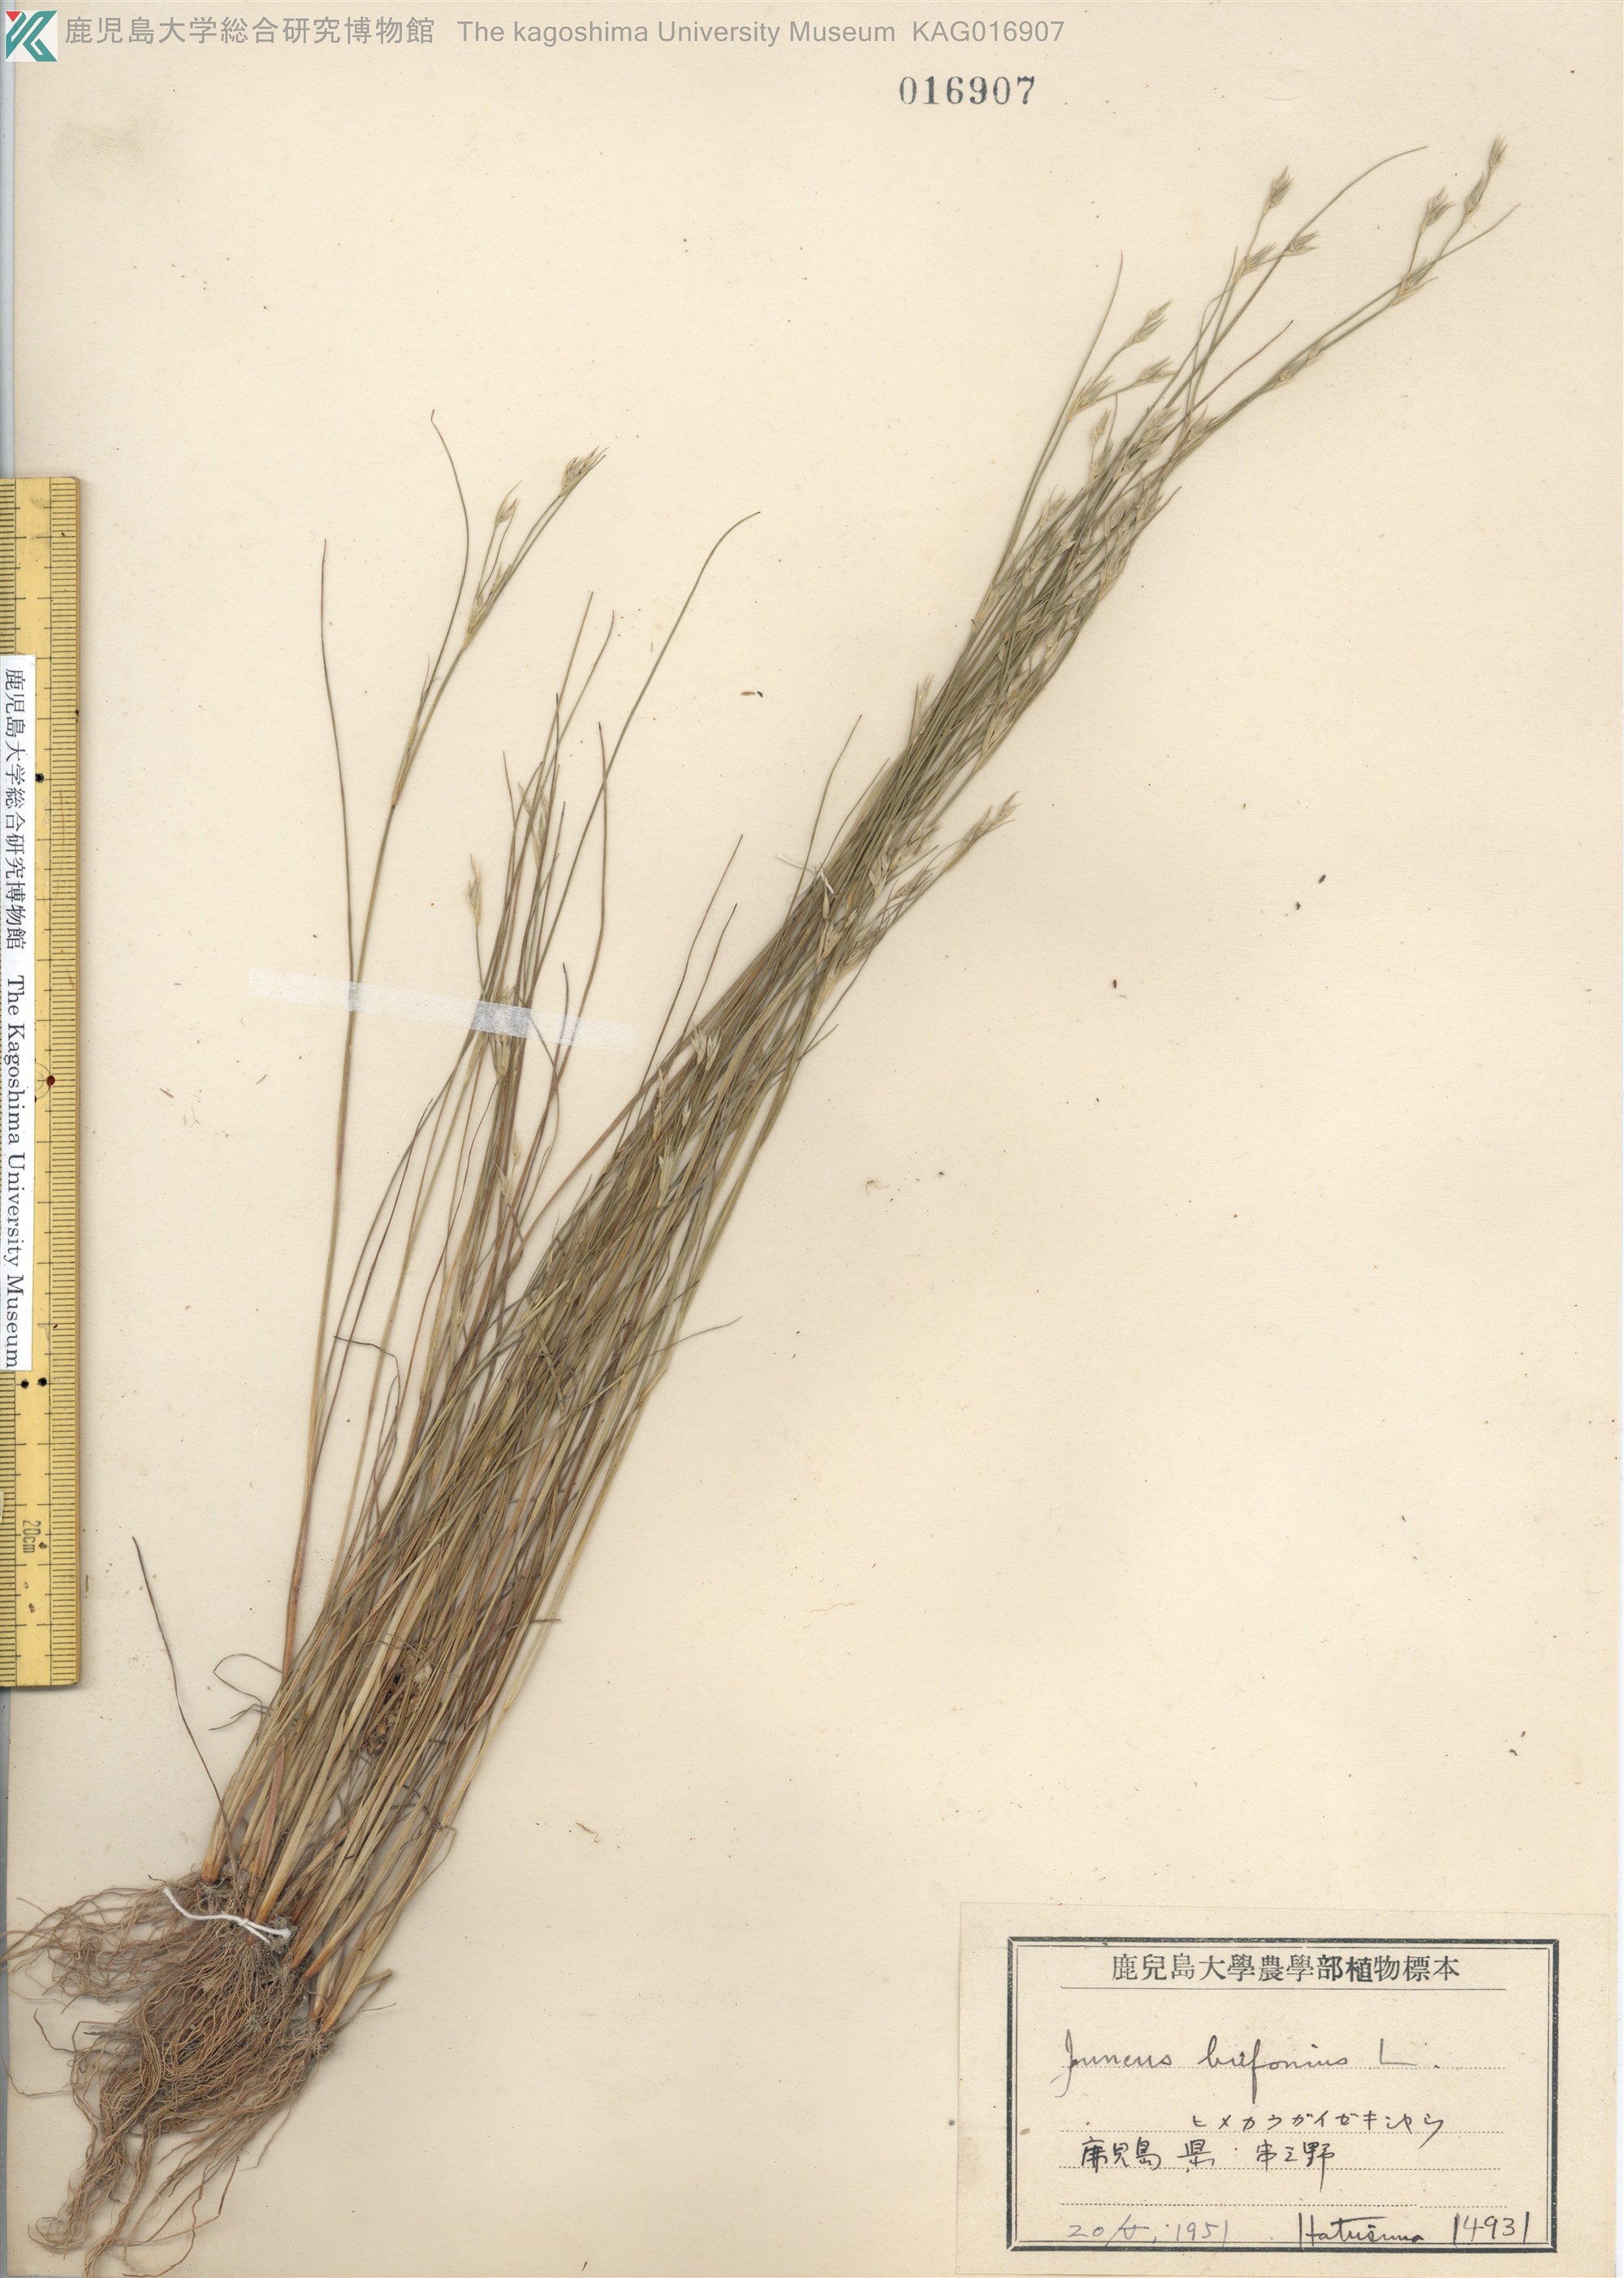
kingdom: Plantae
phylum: Tracheophyta
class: Liliopsida
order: Poales
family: Juncaceae
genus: Juncus
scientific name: Juncus bufonius
